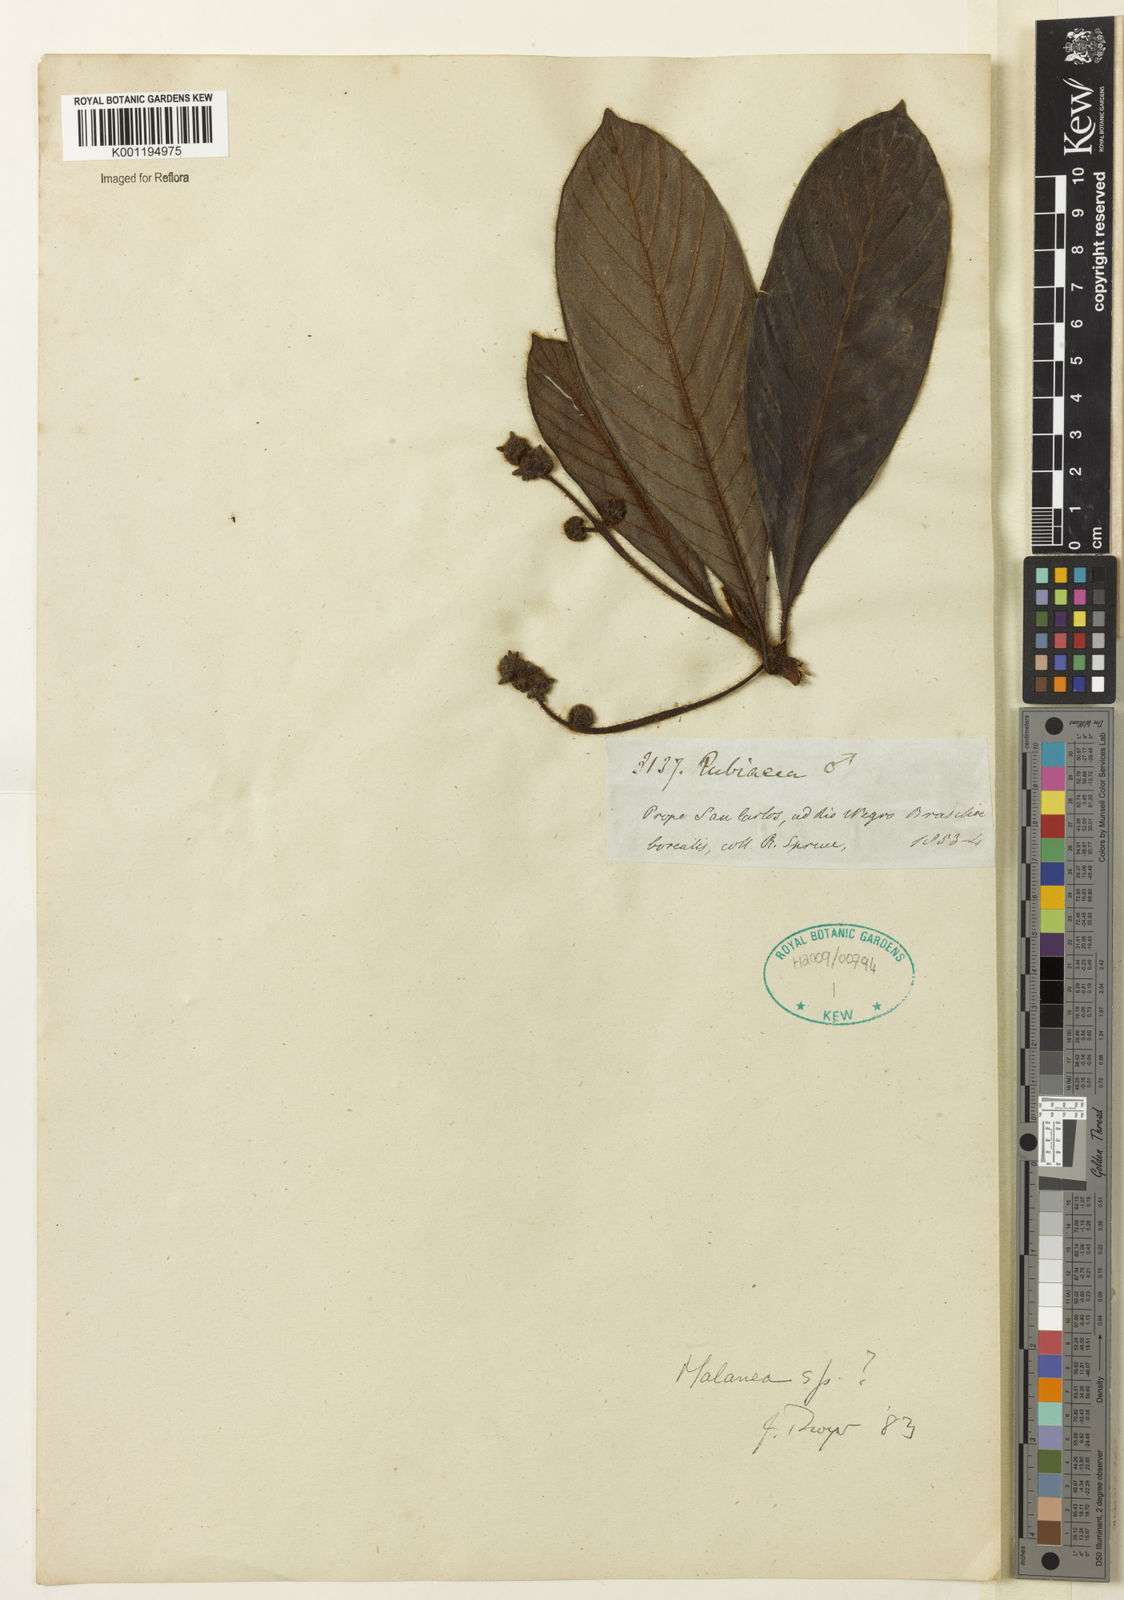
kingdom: Plantae
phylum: Tracheophyta
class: Magnoliopsida
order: Gentianales
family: Rubiaceae
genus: Malanea
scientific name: Malanea
